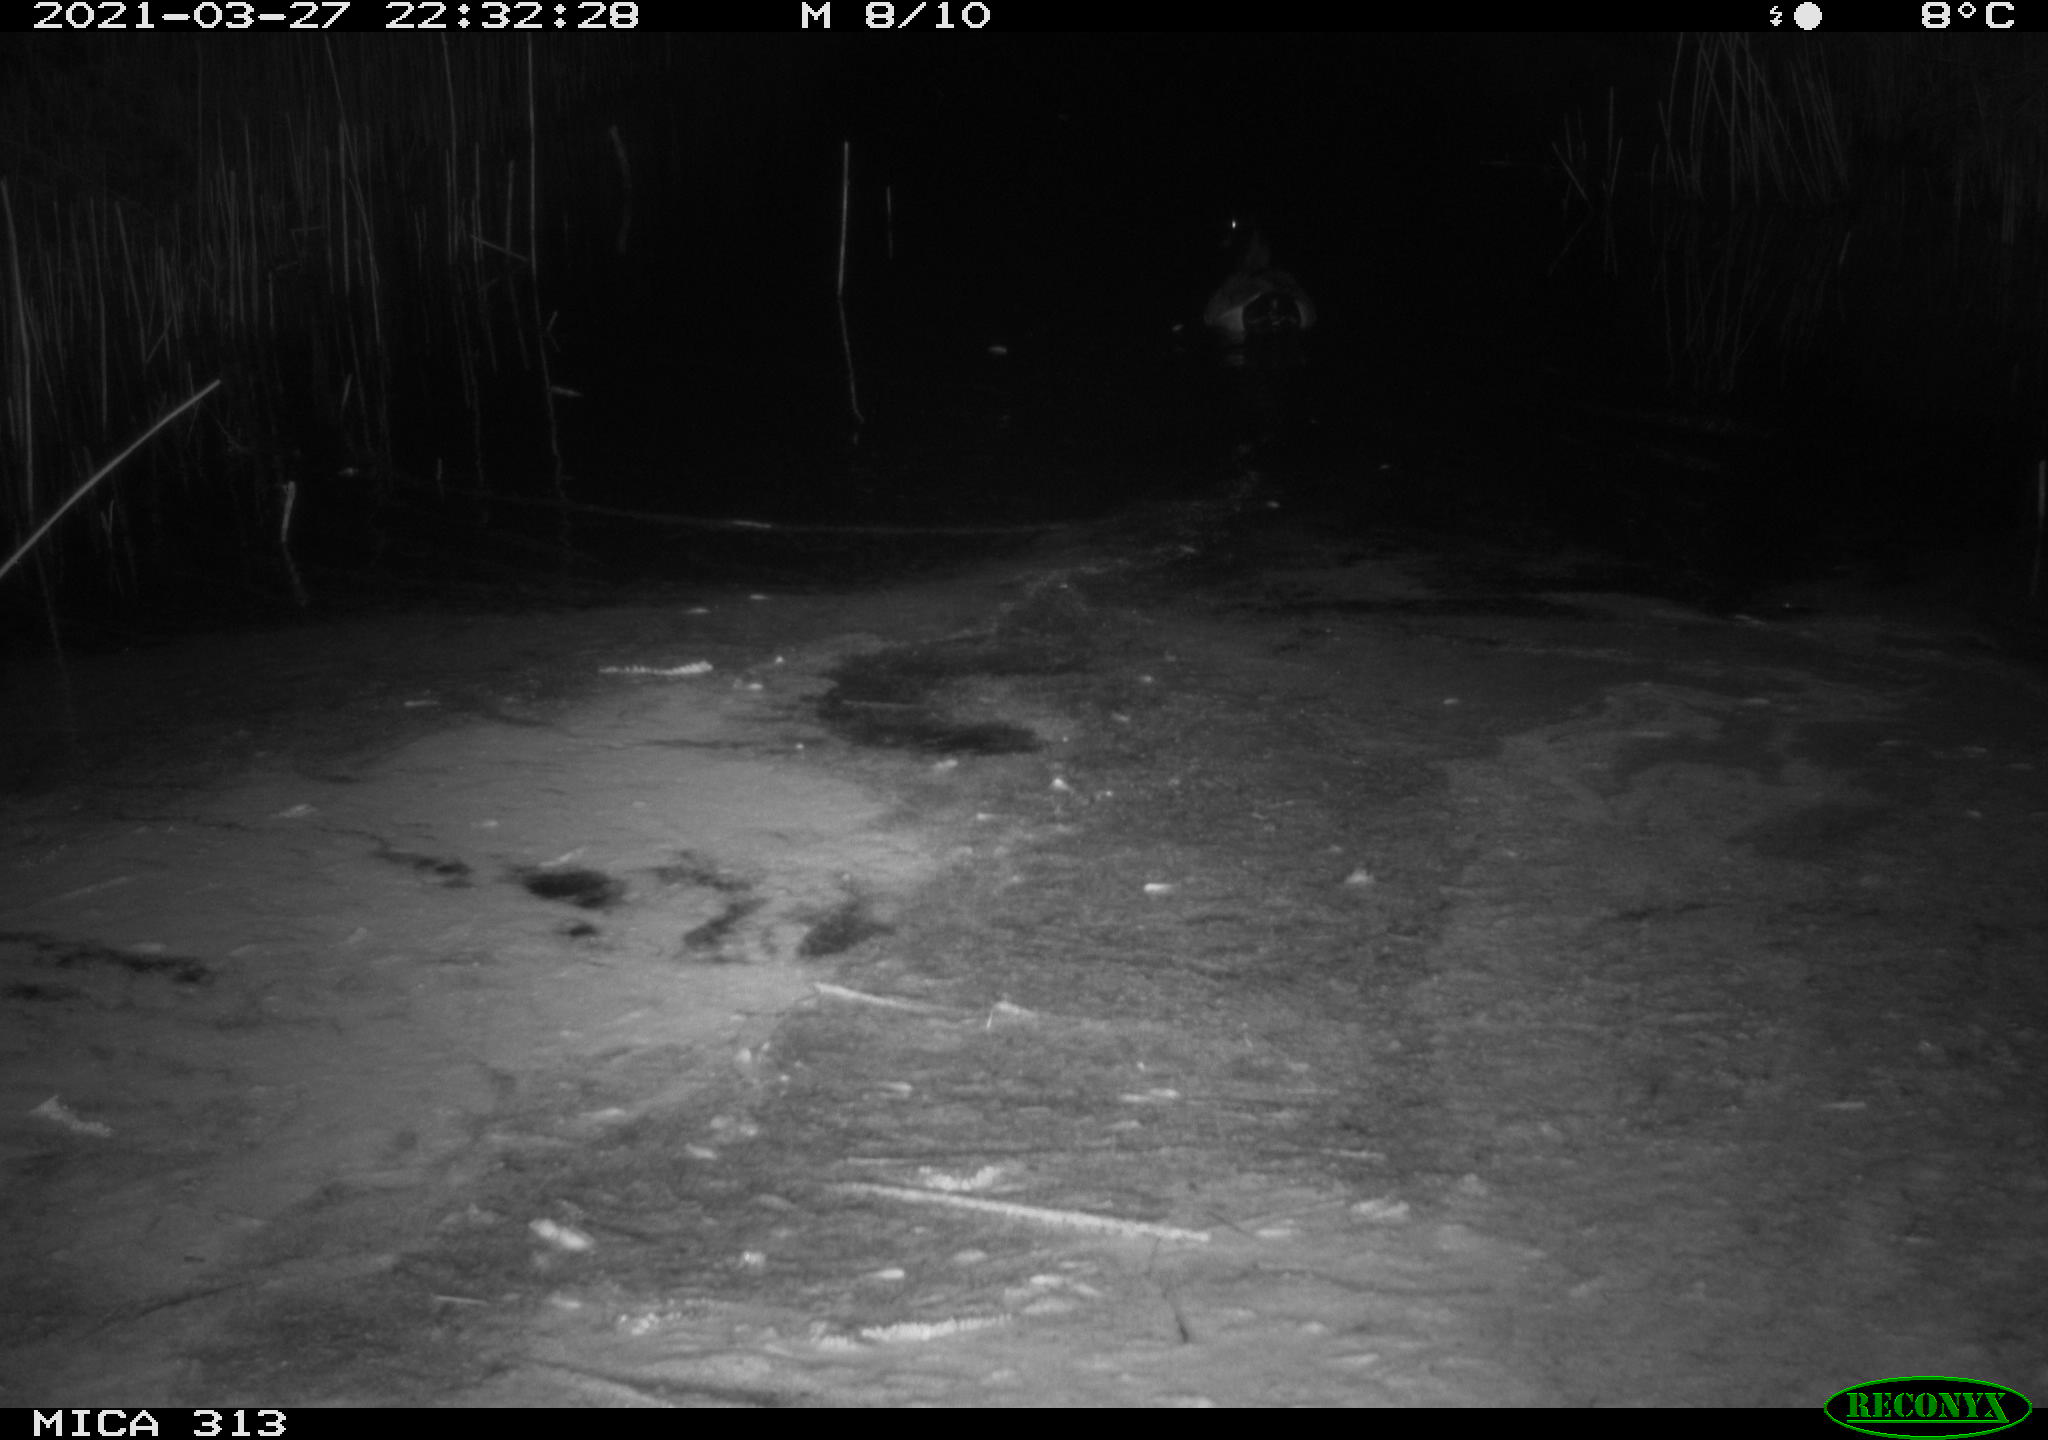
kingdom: Animalia
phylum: Chordata
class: Aves
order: Anseriformes
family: Anatidae
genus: Anas
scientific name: Anas platyrhynchos
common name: Mallard
